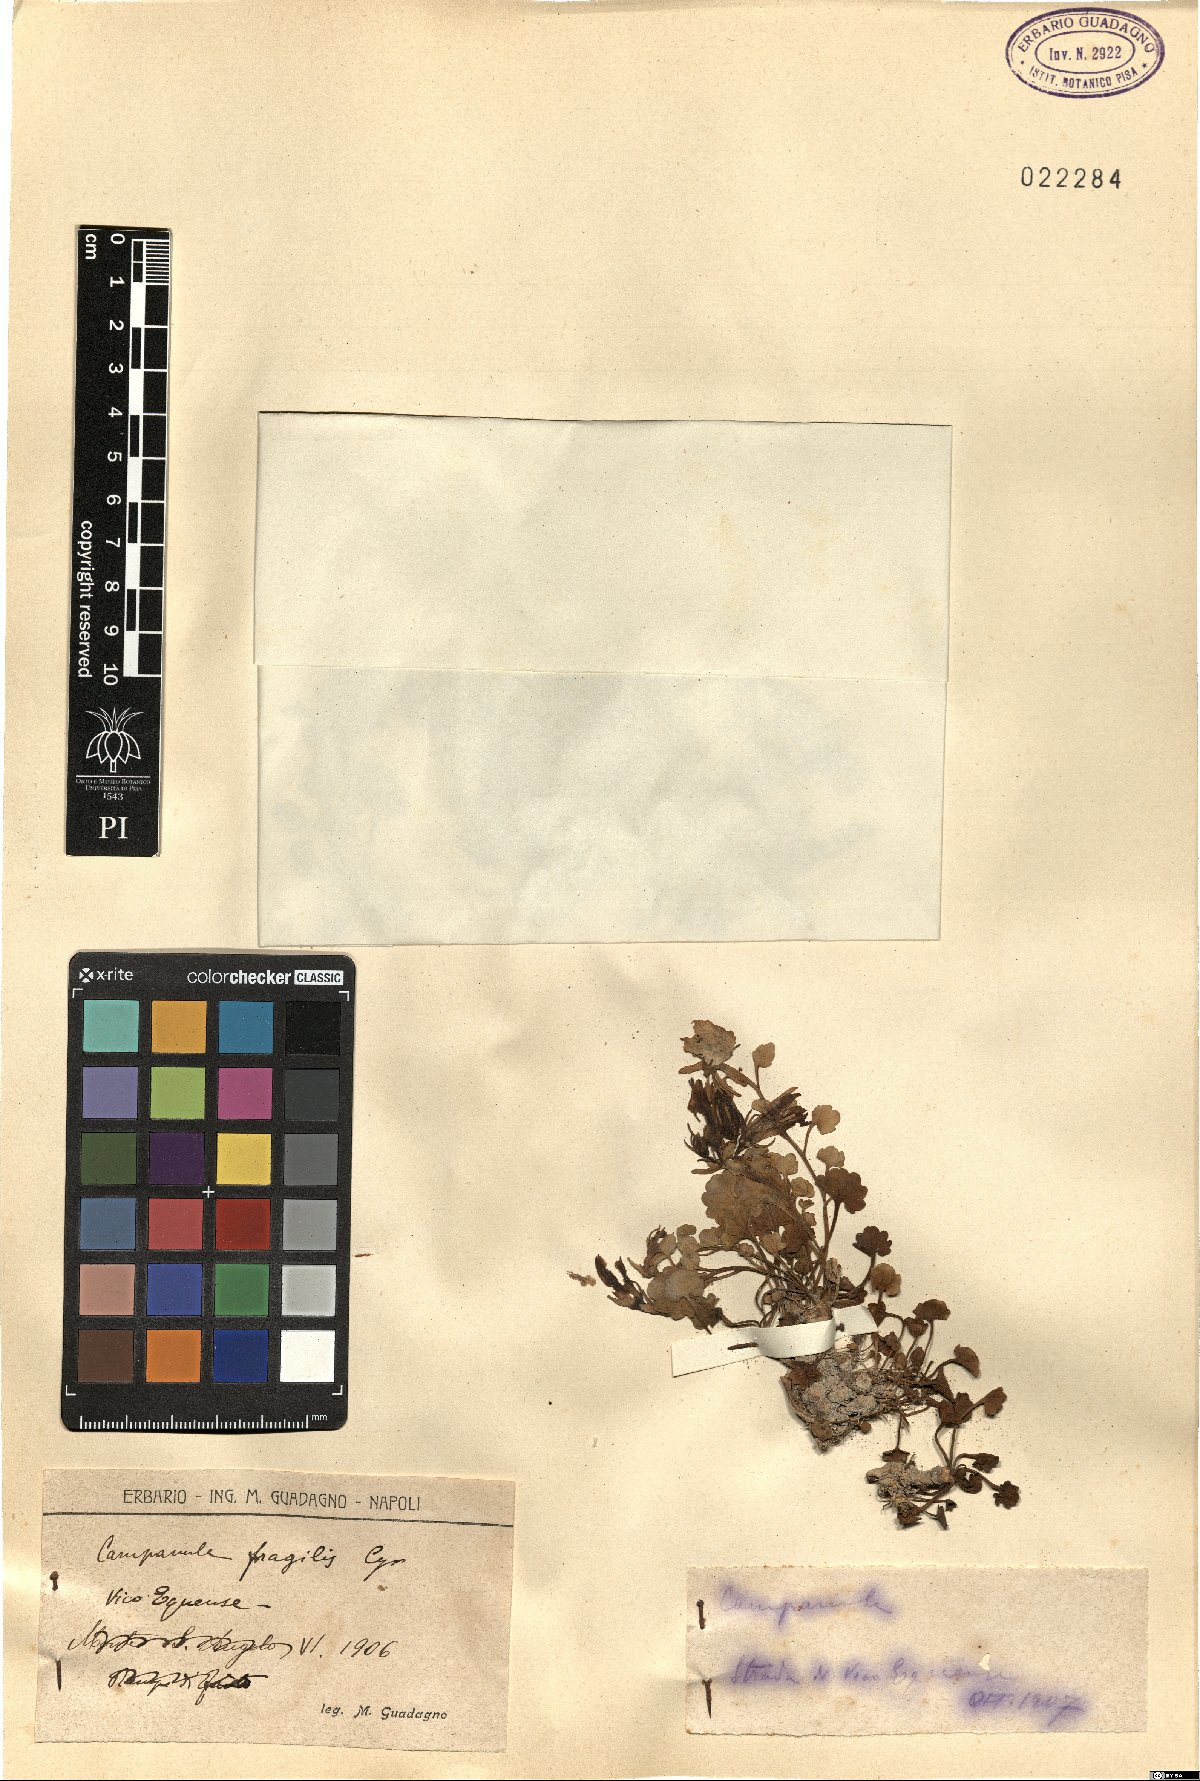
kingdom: Plantae
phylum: Tracheophyta
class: Magnoliopsida
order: Asterales
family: Campanulaceae
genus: Campanula
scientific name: Campanula fragilis
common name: Italian bellflower
